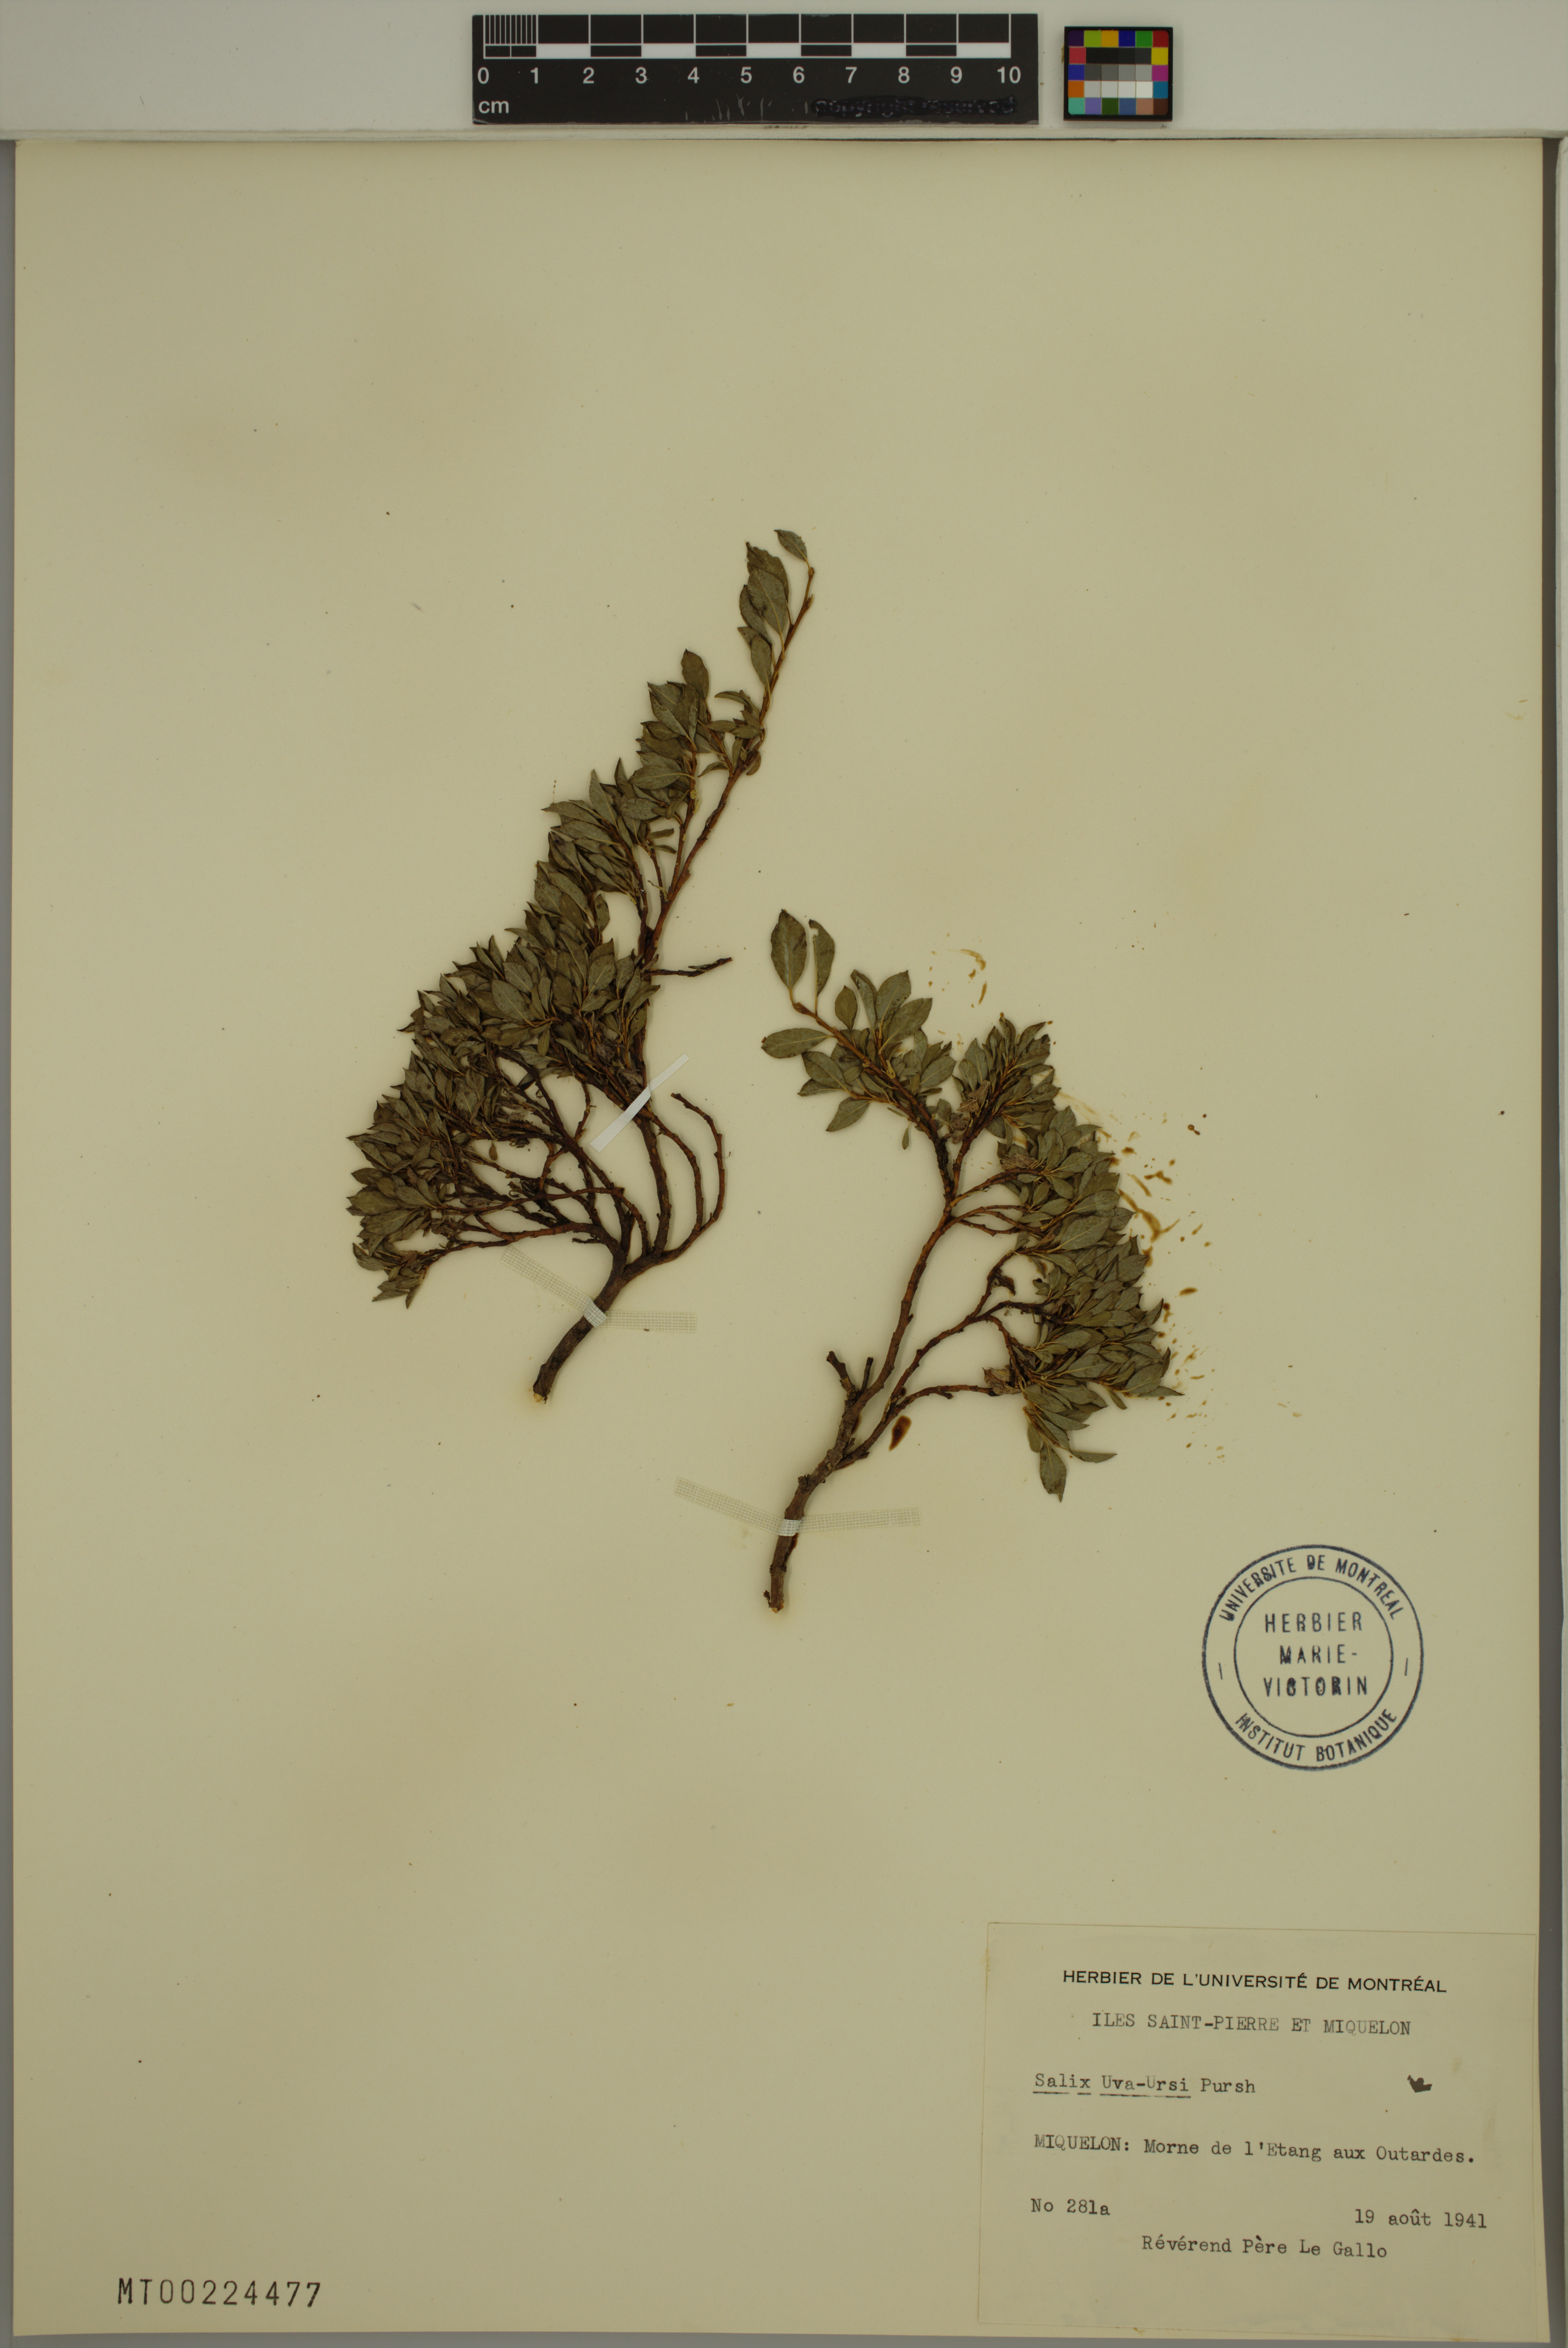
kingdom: Plantae
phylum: Tracheophyta
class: Magnoliopsida
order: Malpighiales
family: Salicaceae
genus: Salix
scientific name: Salix uva-ursi
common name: Bearberry willow
